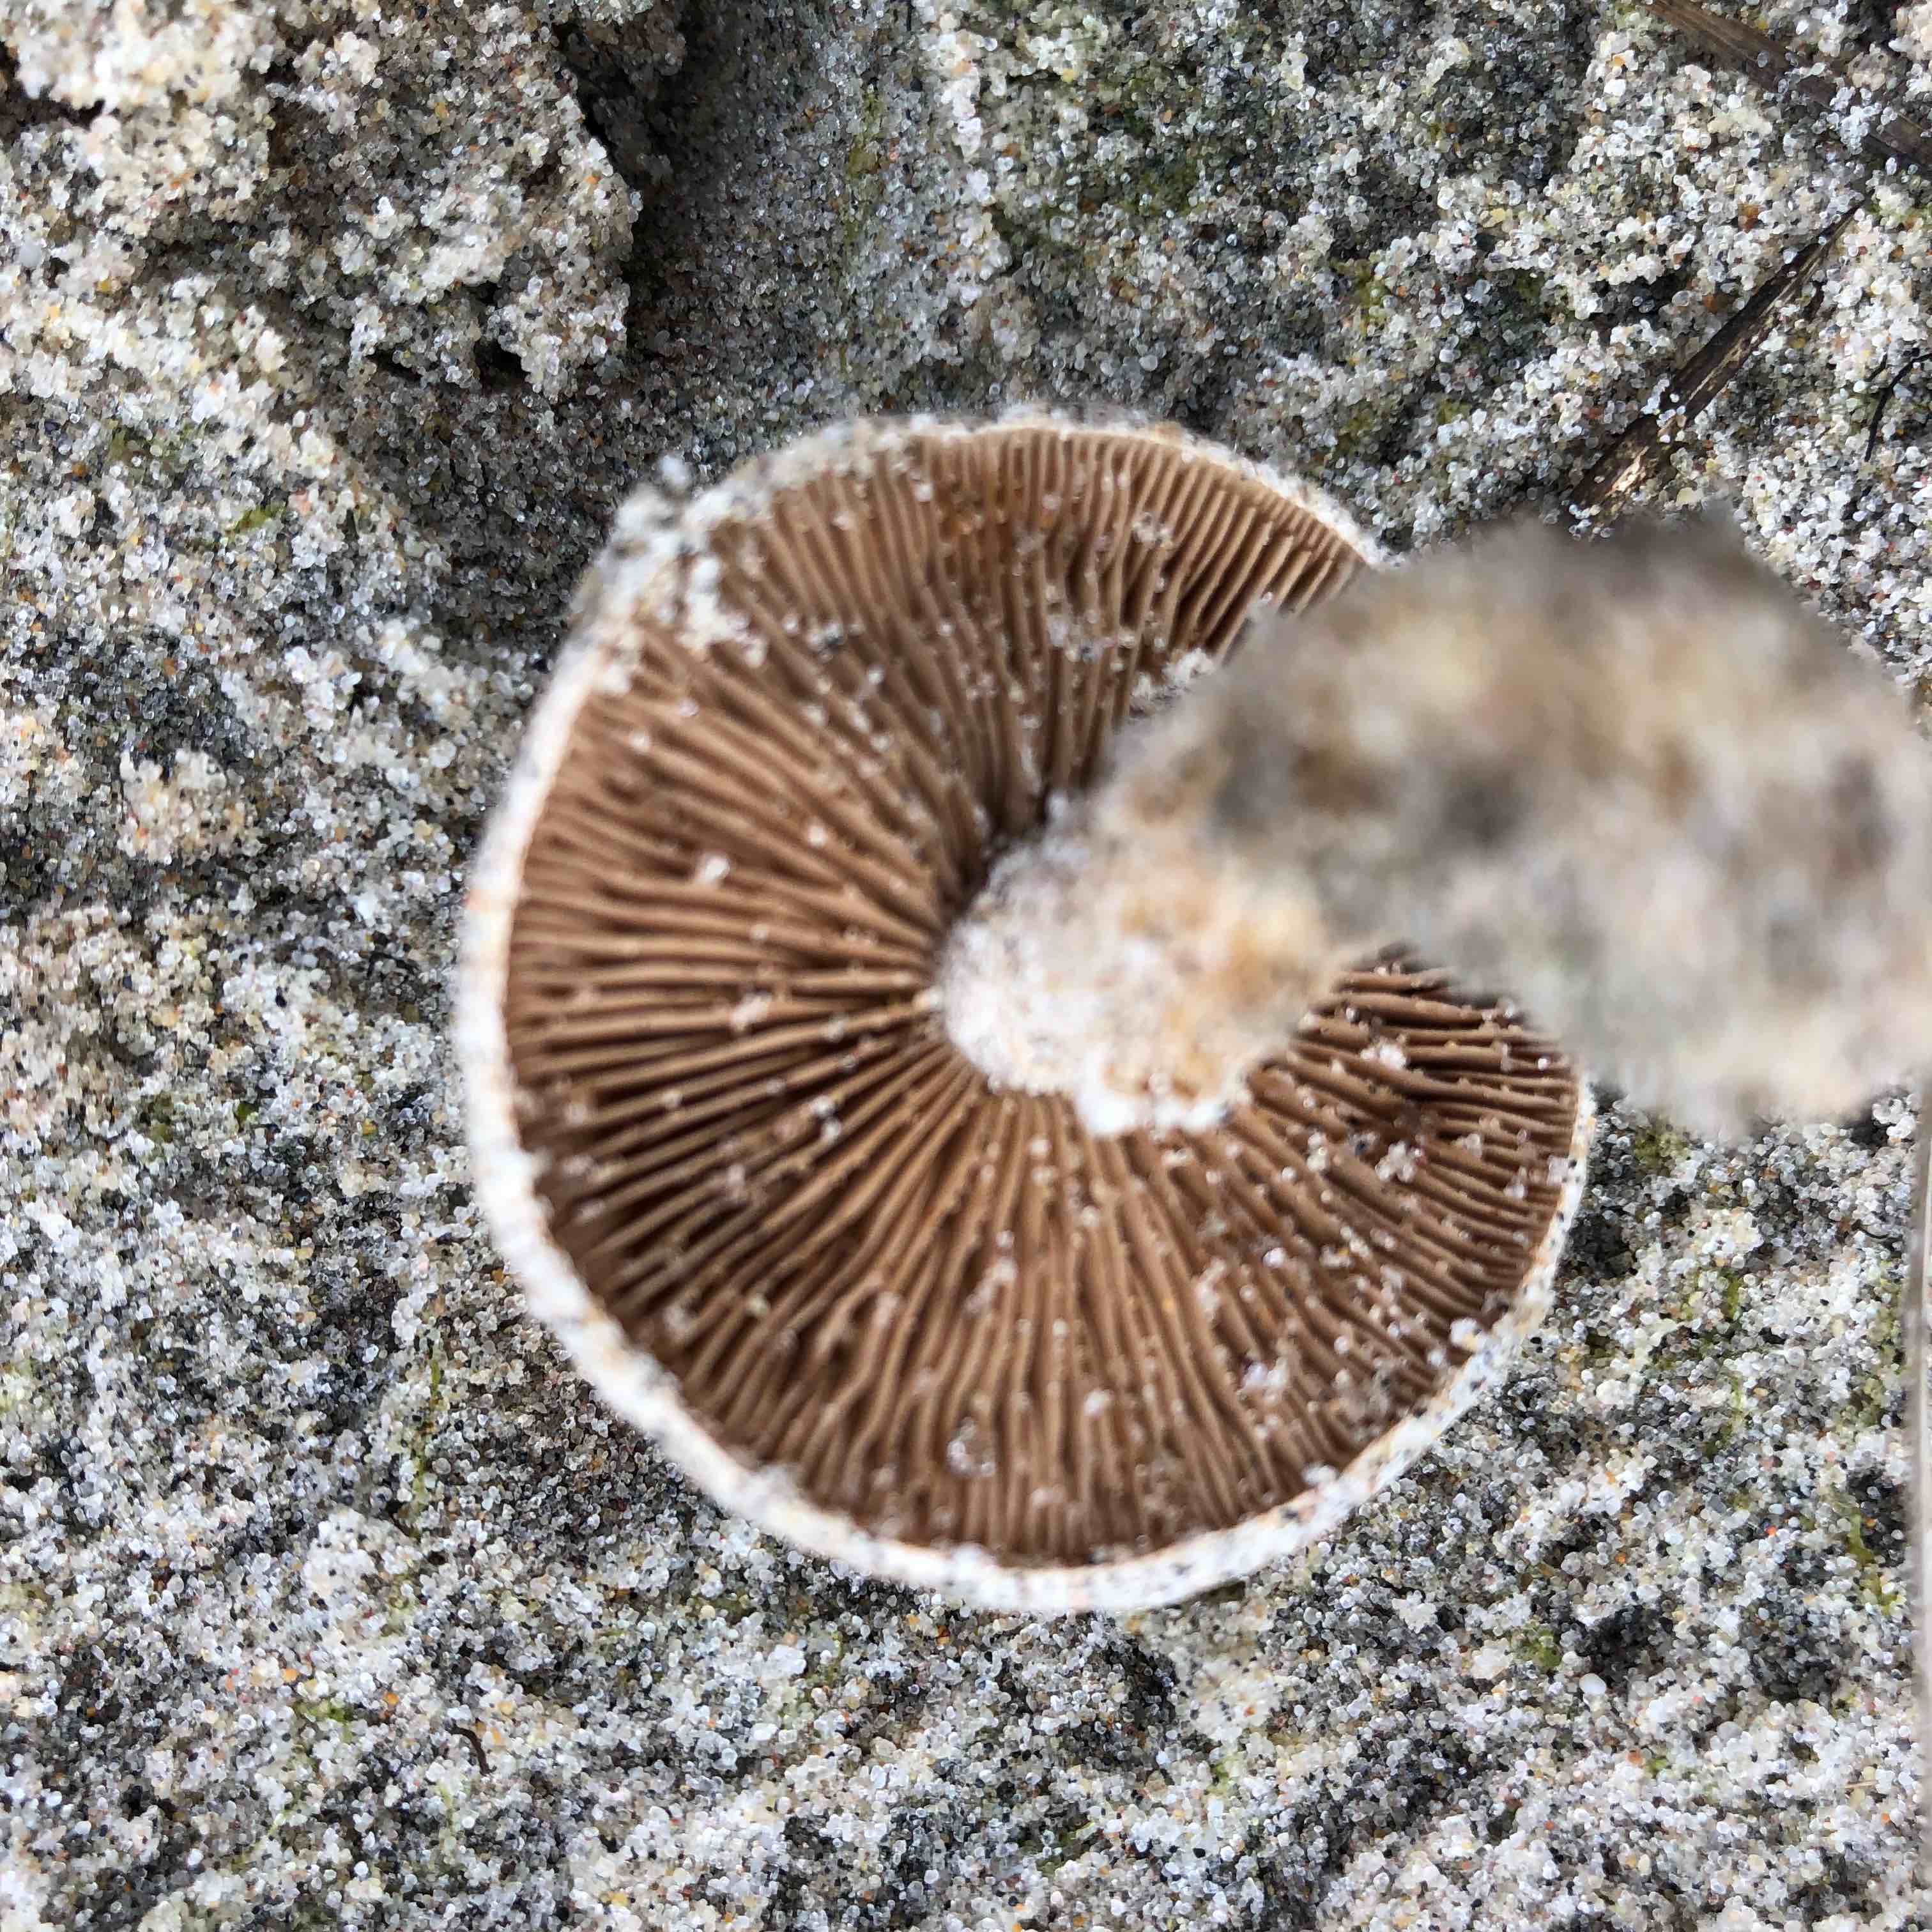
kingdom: Fungi
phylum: Basidiomycota
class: Agaricomycetes
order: Agaricales
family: Hymenogastraceae
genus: Hebeloma
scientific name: Hebeloma
